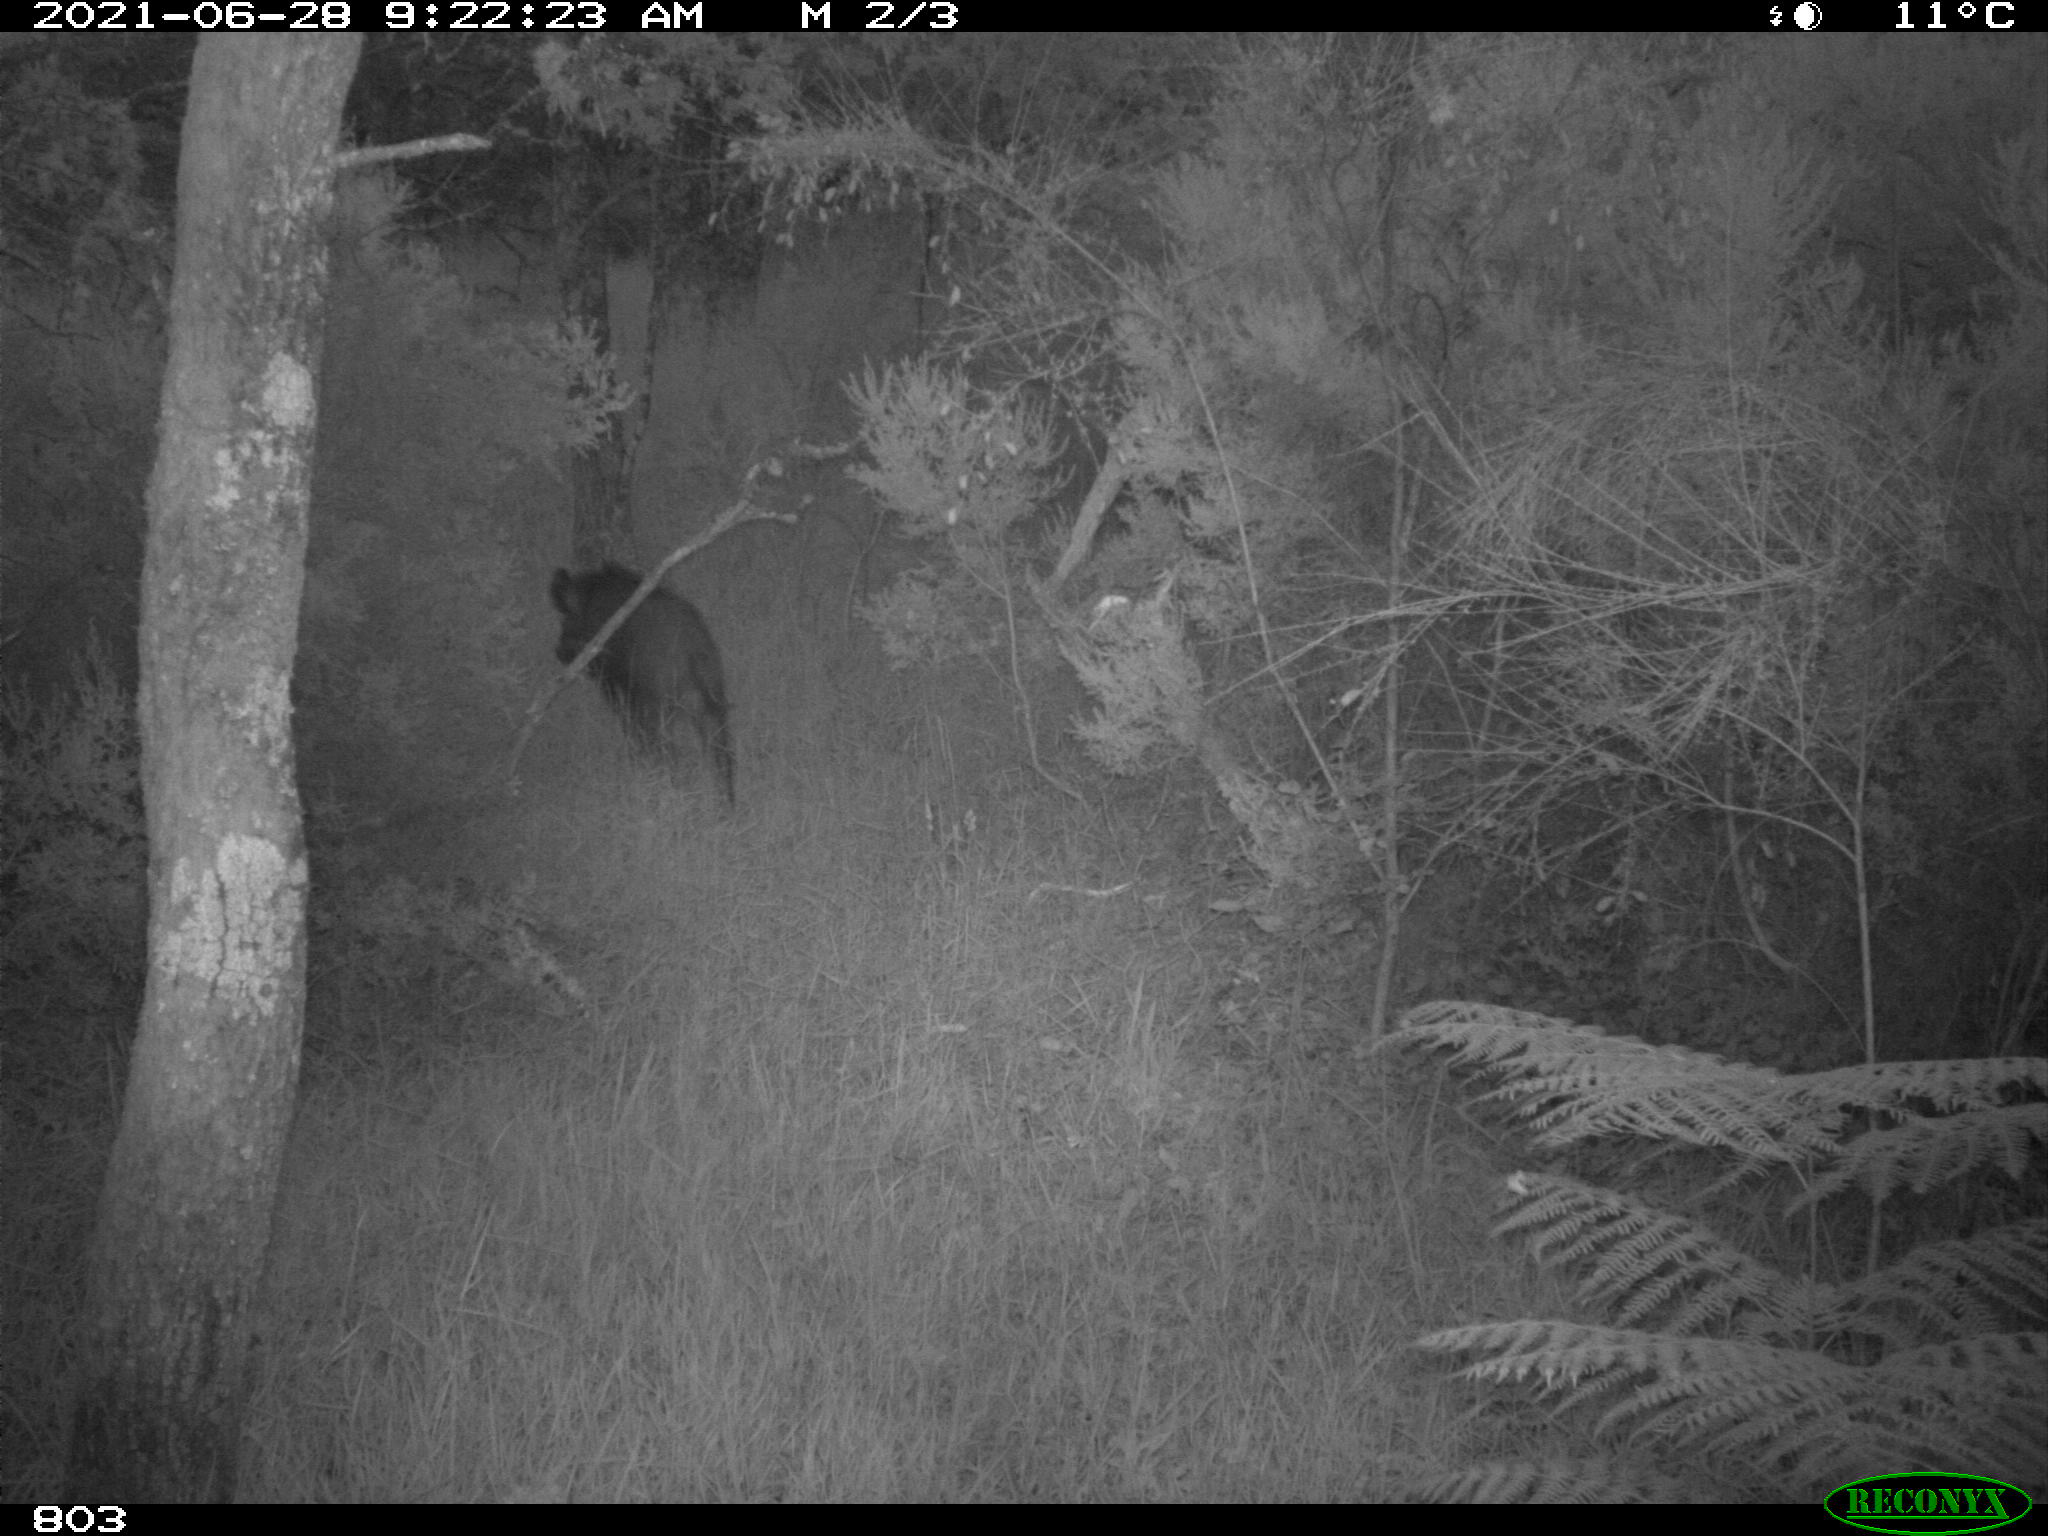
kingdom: Animalia
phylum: Chordata
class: Mammalia
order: Artiodactyla
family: Suidae
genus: Sus
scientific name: Sus scrofa
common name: Wild boar
